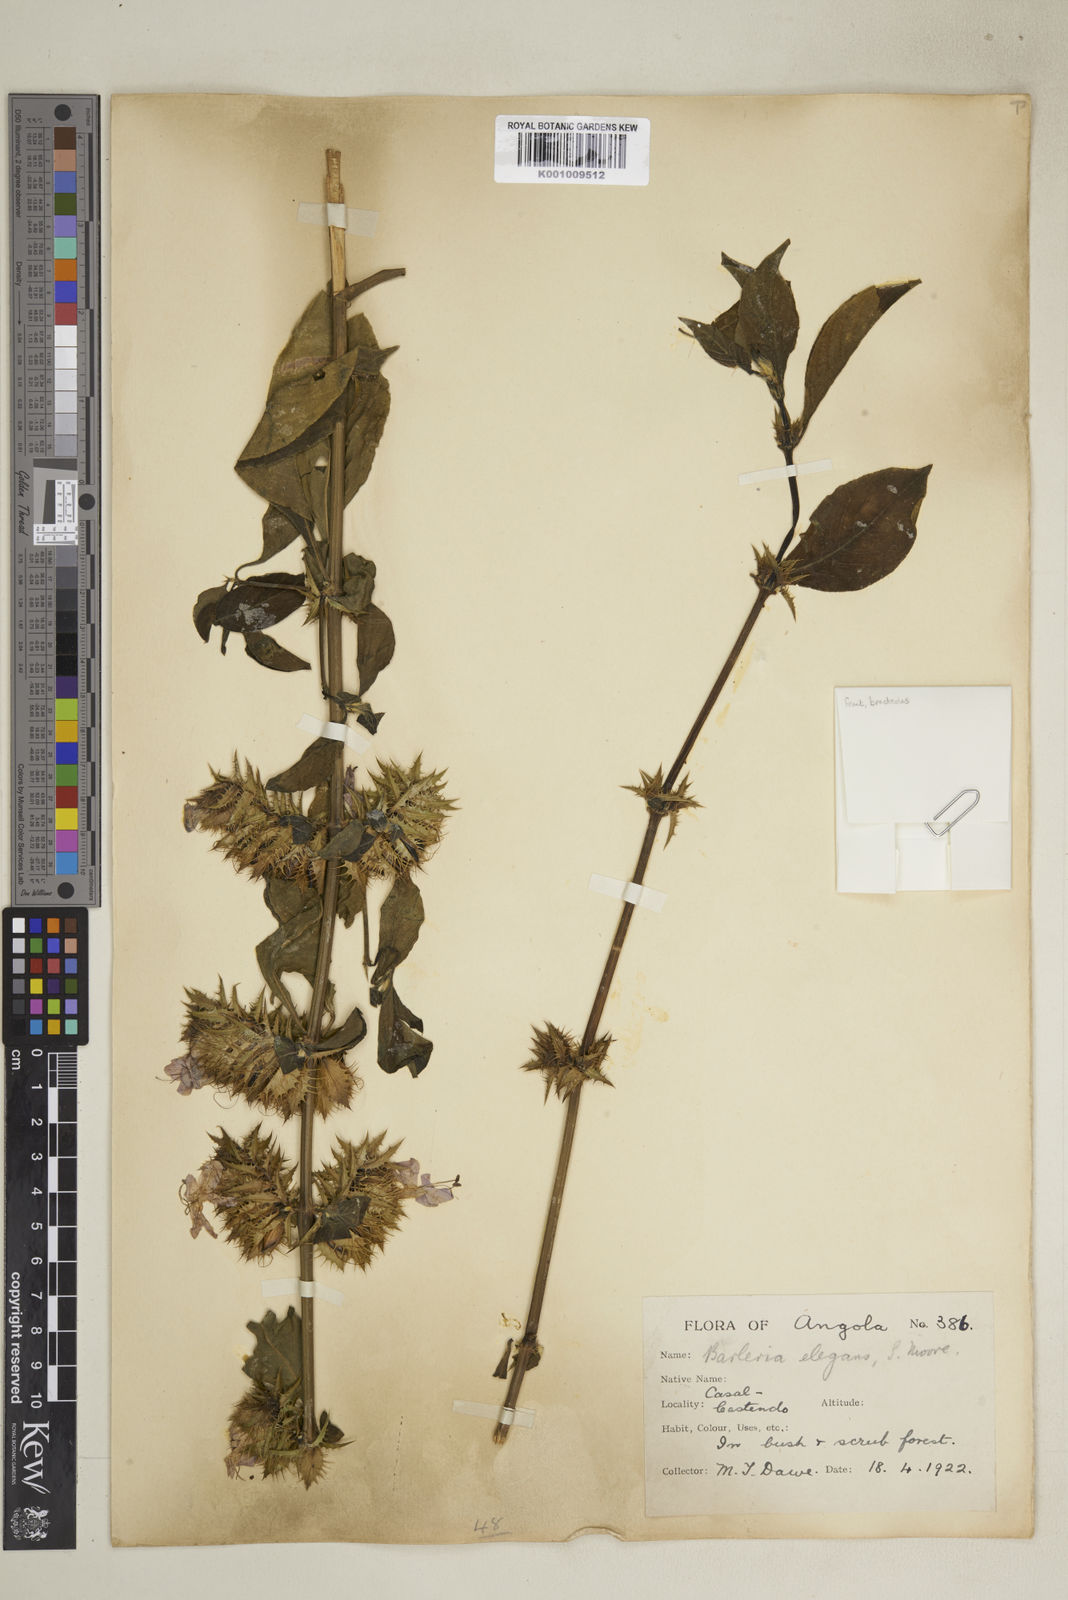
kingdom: Plantae
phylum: Tracheophyta
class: Magnoliopsida
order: Lamiales
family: Acanthaceae
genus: Barleria
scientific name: Barleria
